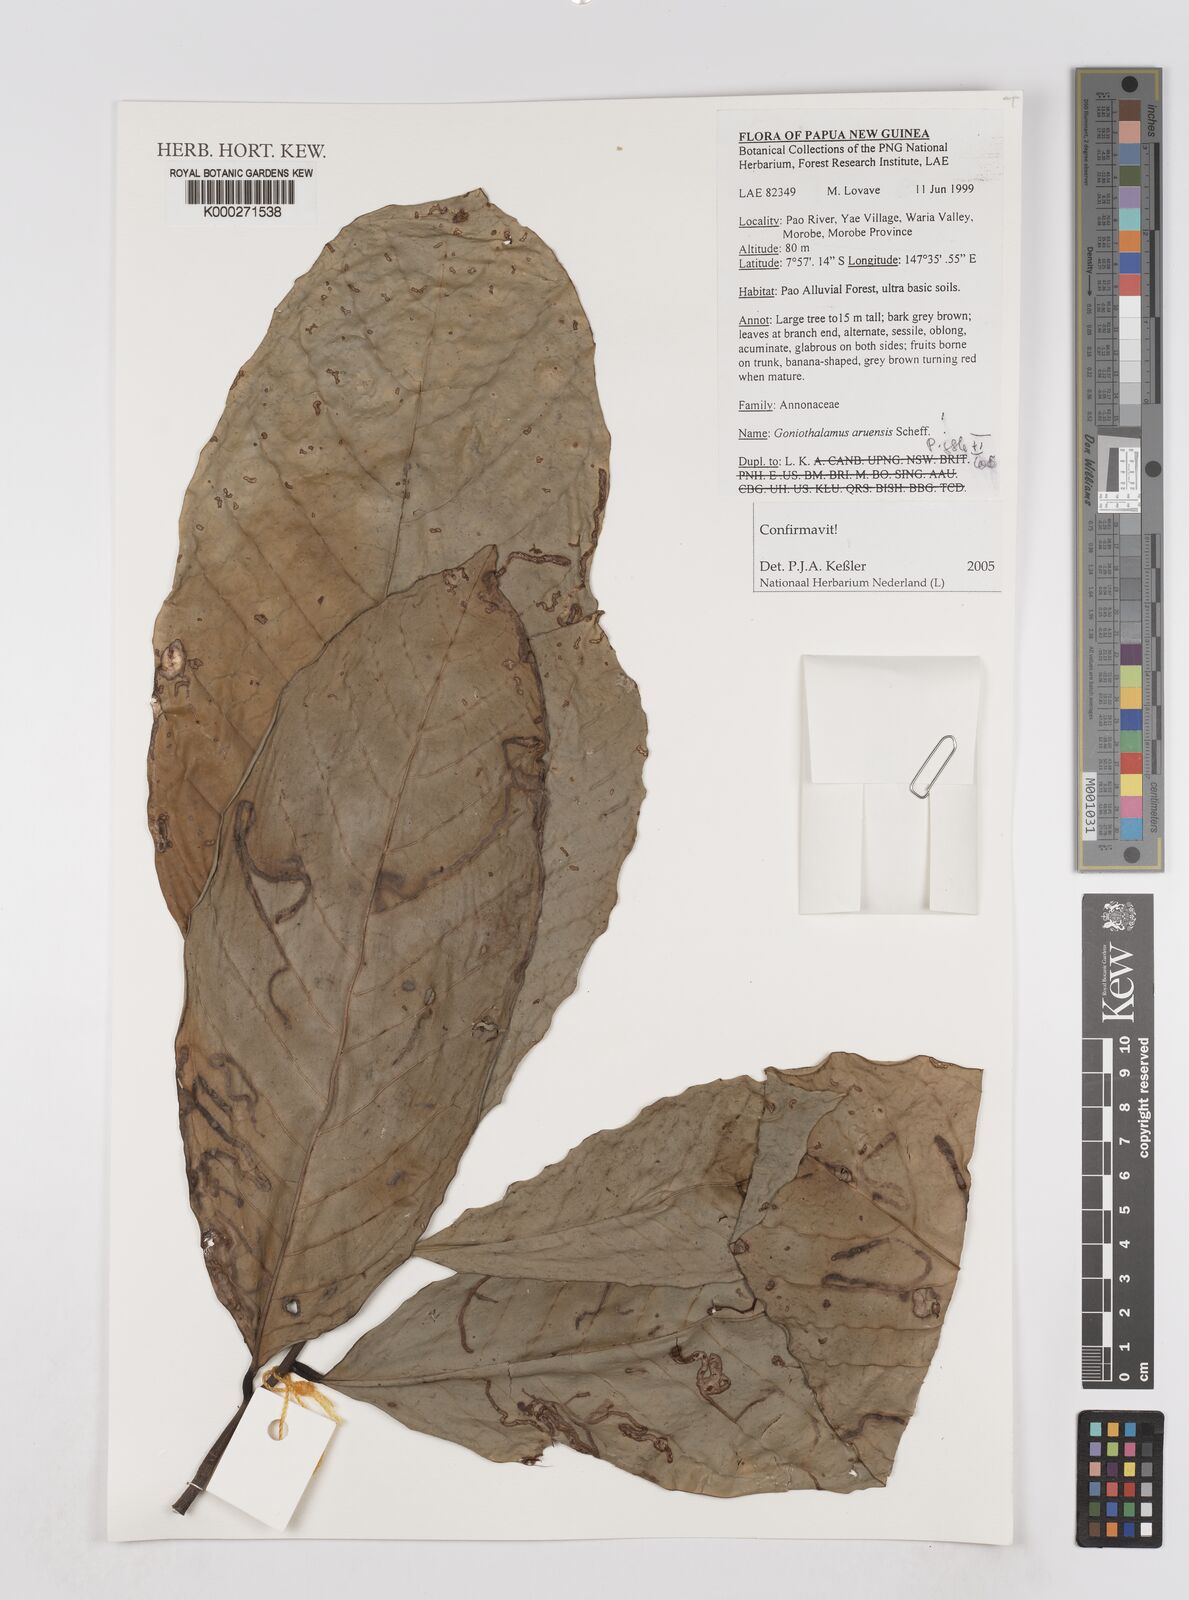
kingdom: Plantae
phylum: Tracheophyta
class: Magnoliopsida
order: Magnoliales
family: Annonaceae
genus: Goniothalamus
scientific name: Goniothalamus aruensis
